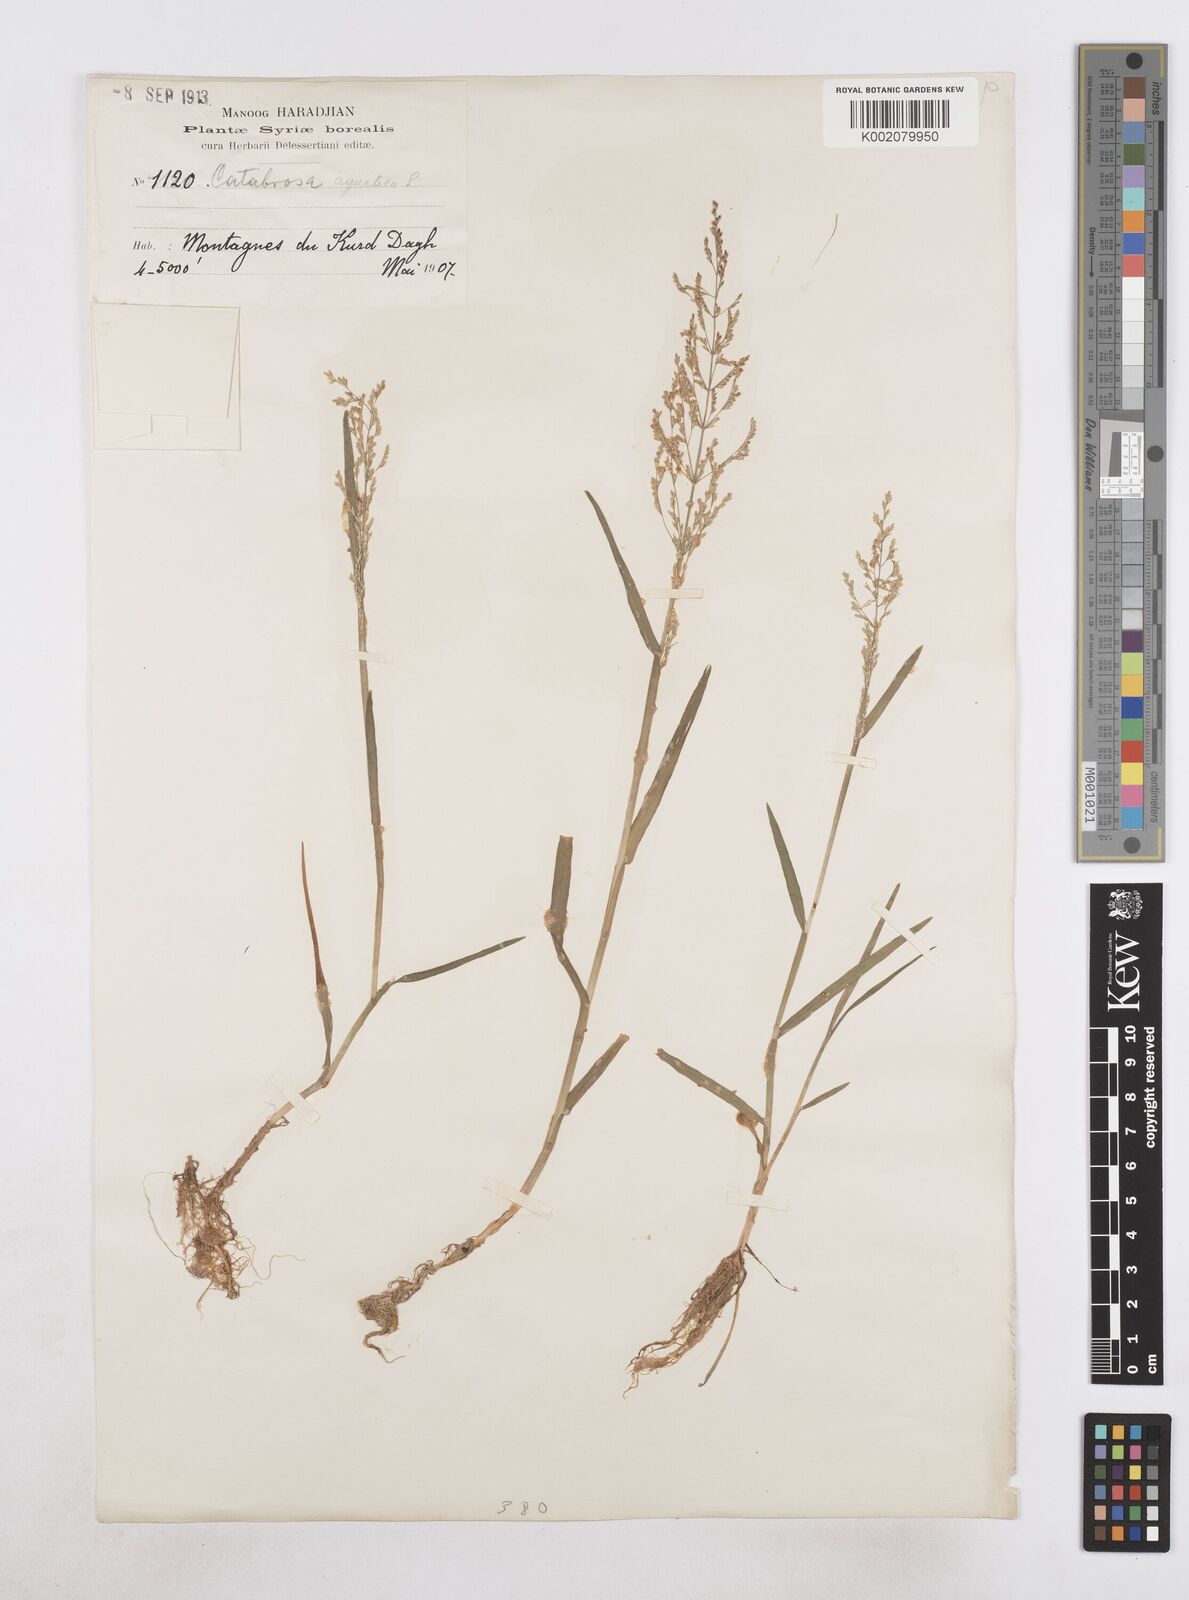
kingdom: Plantae
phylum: Tracheophyta
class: Liliopsida
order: Poales
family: Poaceae
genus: Catabrosa
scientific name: Catabrosa aquatica
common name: Whorl-grass
